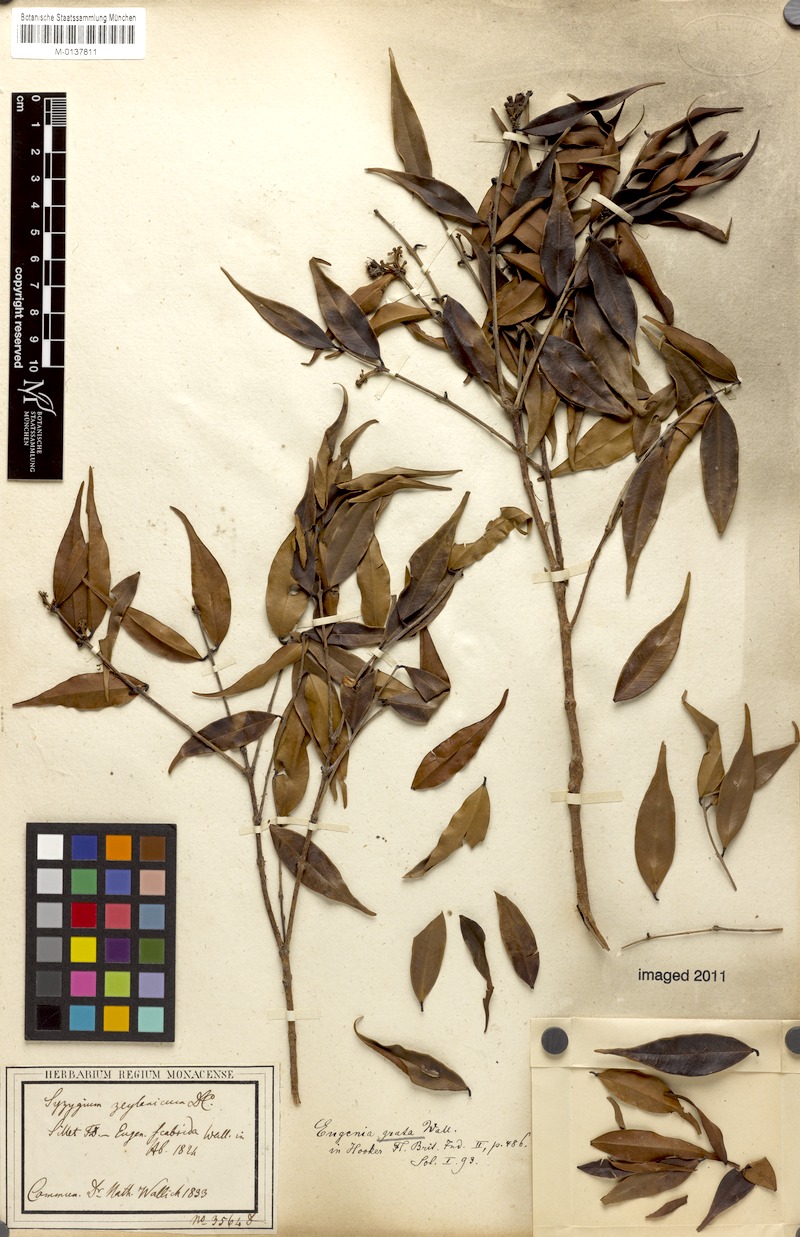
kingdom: Plantae
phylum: Tracheophyta
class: Magnoliopsida
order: Myrtales
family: Myrtaceae
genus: Syzygium
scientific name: Syzygium antisepticum
